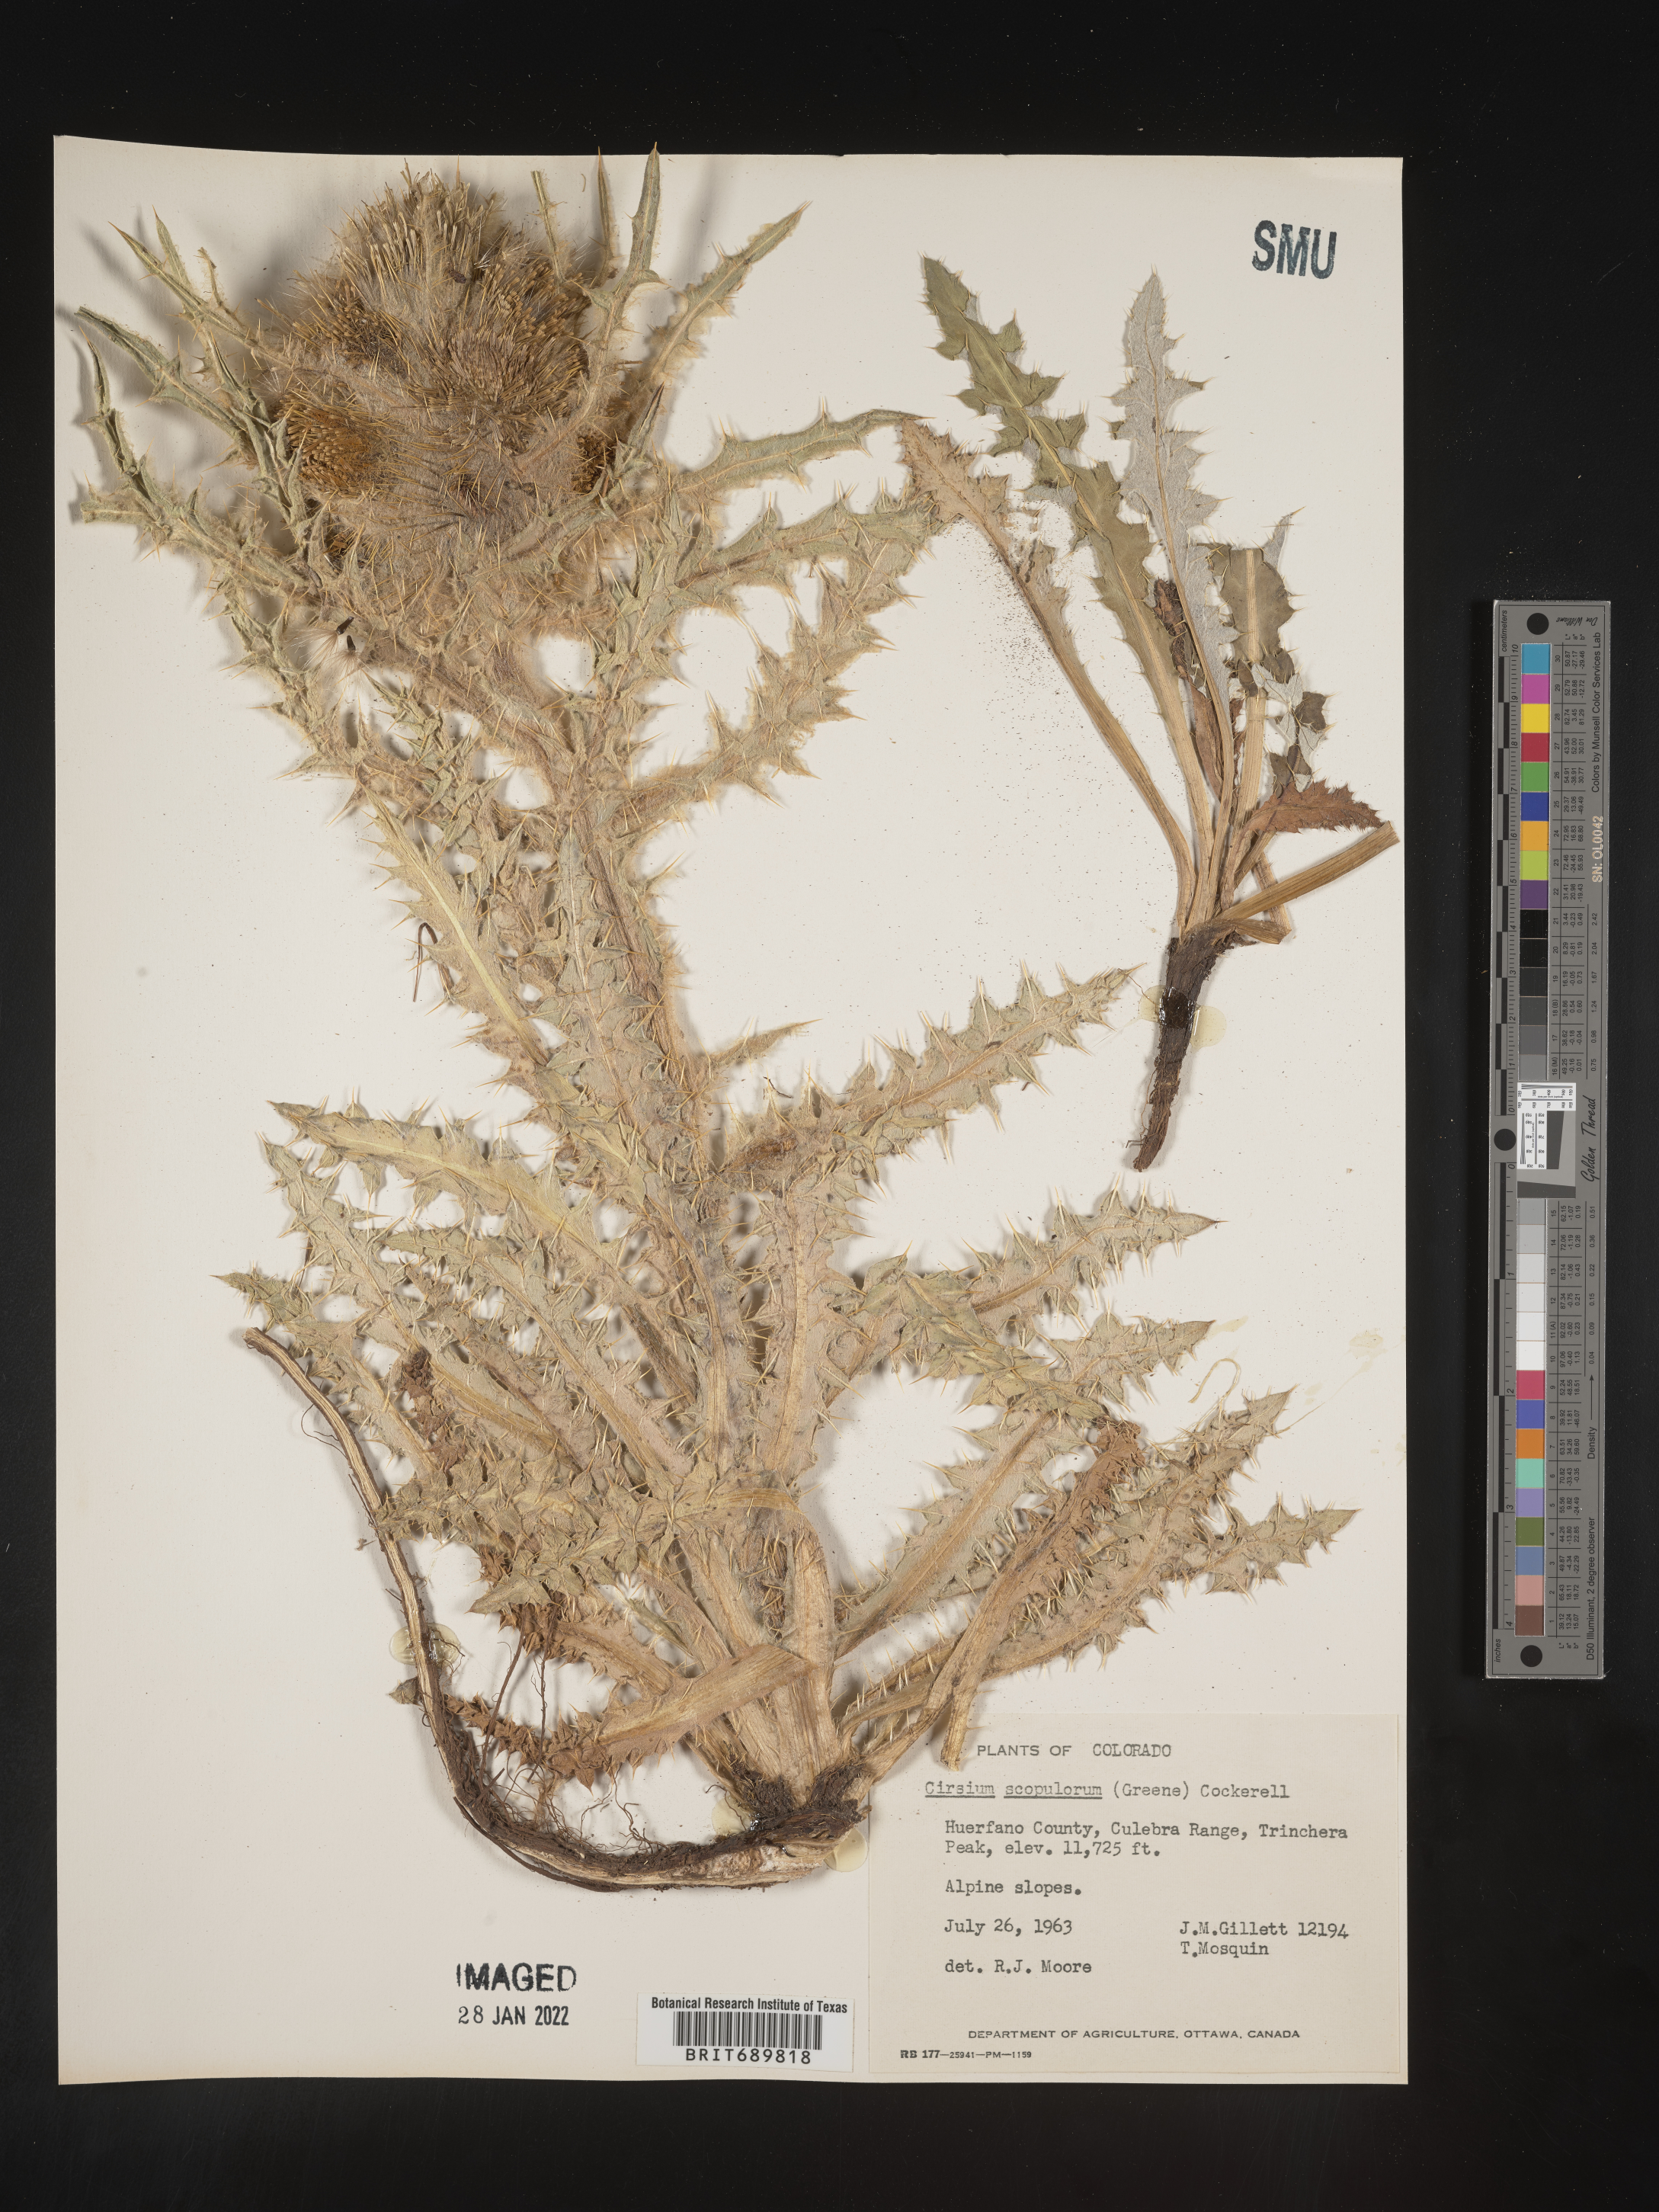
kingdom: Plantae
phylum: Tracheophyta
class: Magnoliopsida
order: Asterales
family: Asteraceae
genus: Cirsium
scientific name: Cirsium scopulorum
